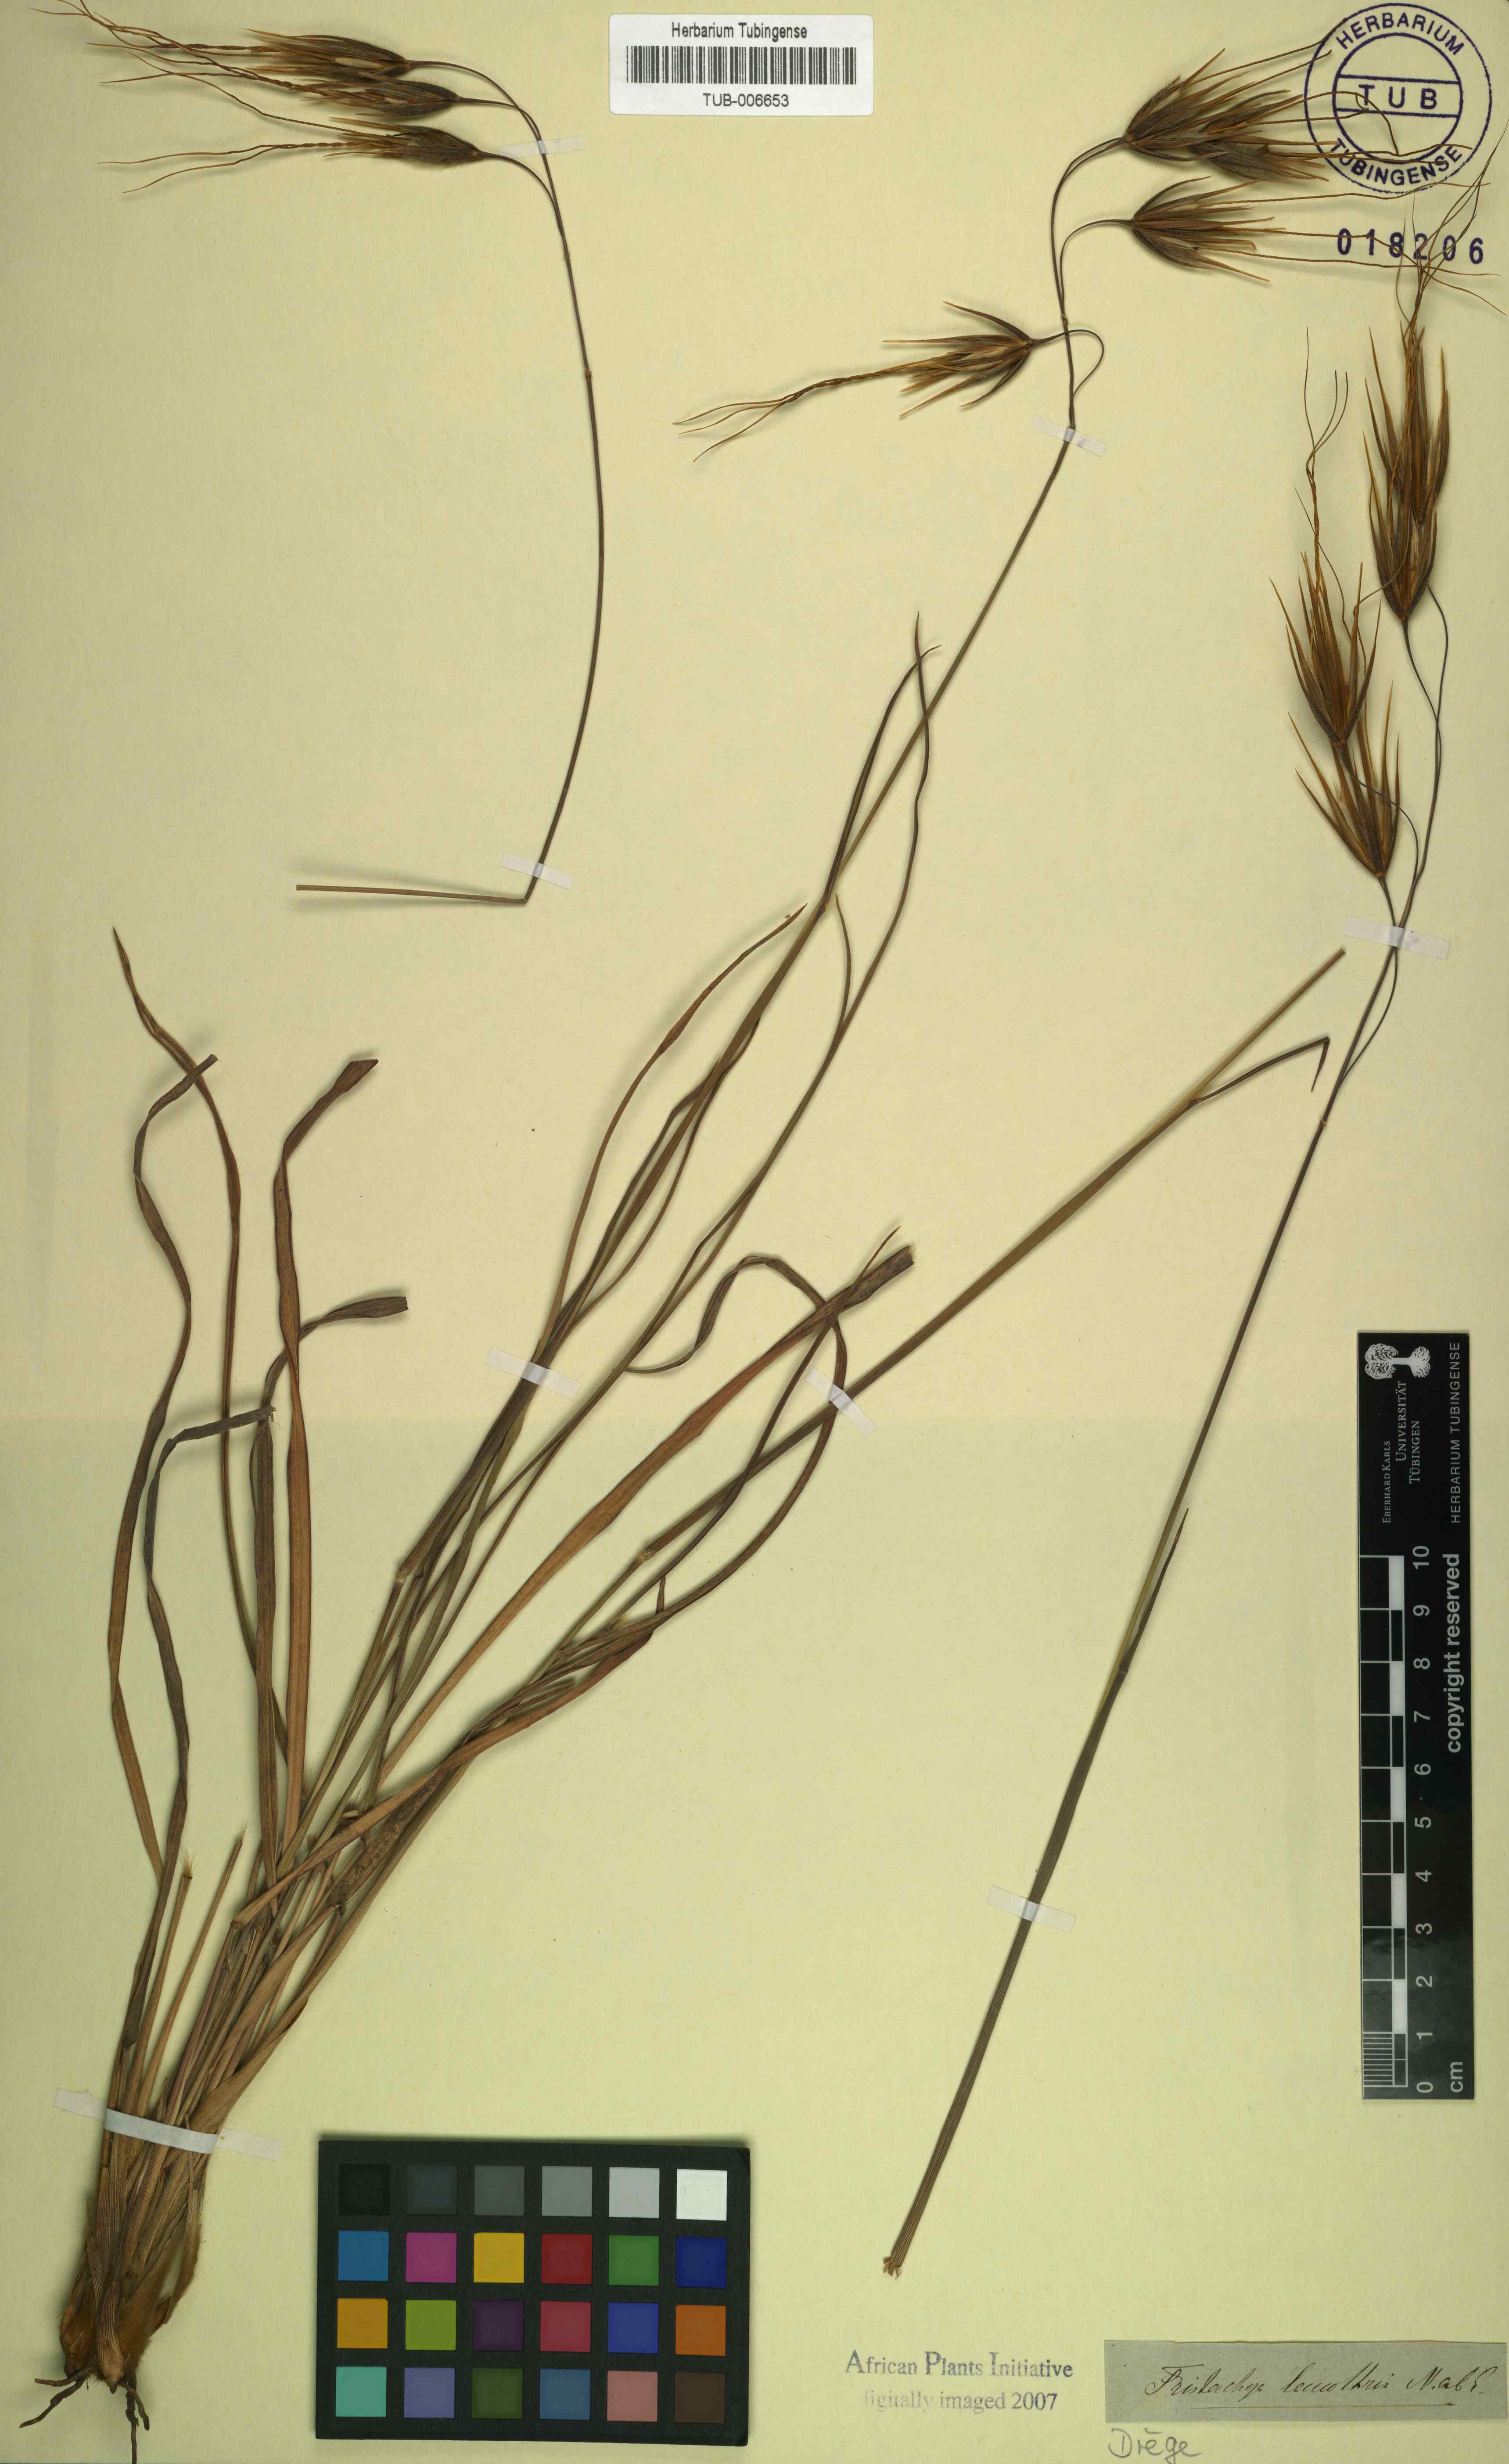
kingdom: Plantae
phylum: Tracheophyta
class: Liliopsida
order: Poales
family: Poaceae
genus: Tristachya
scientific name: Tristachya leucothrix
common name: Trident grass
